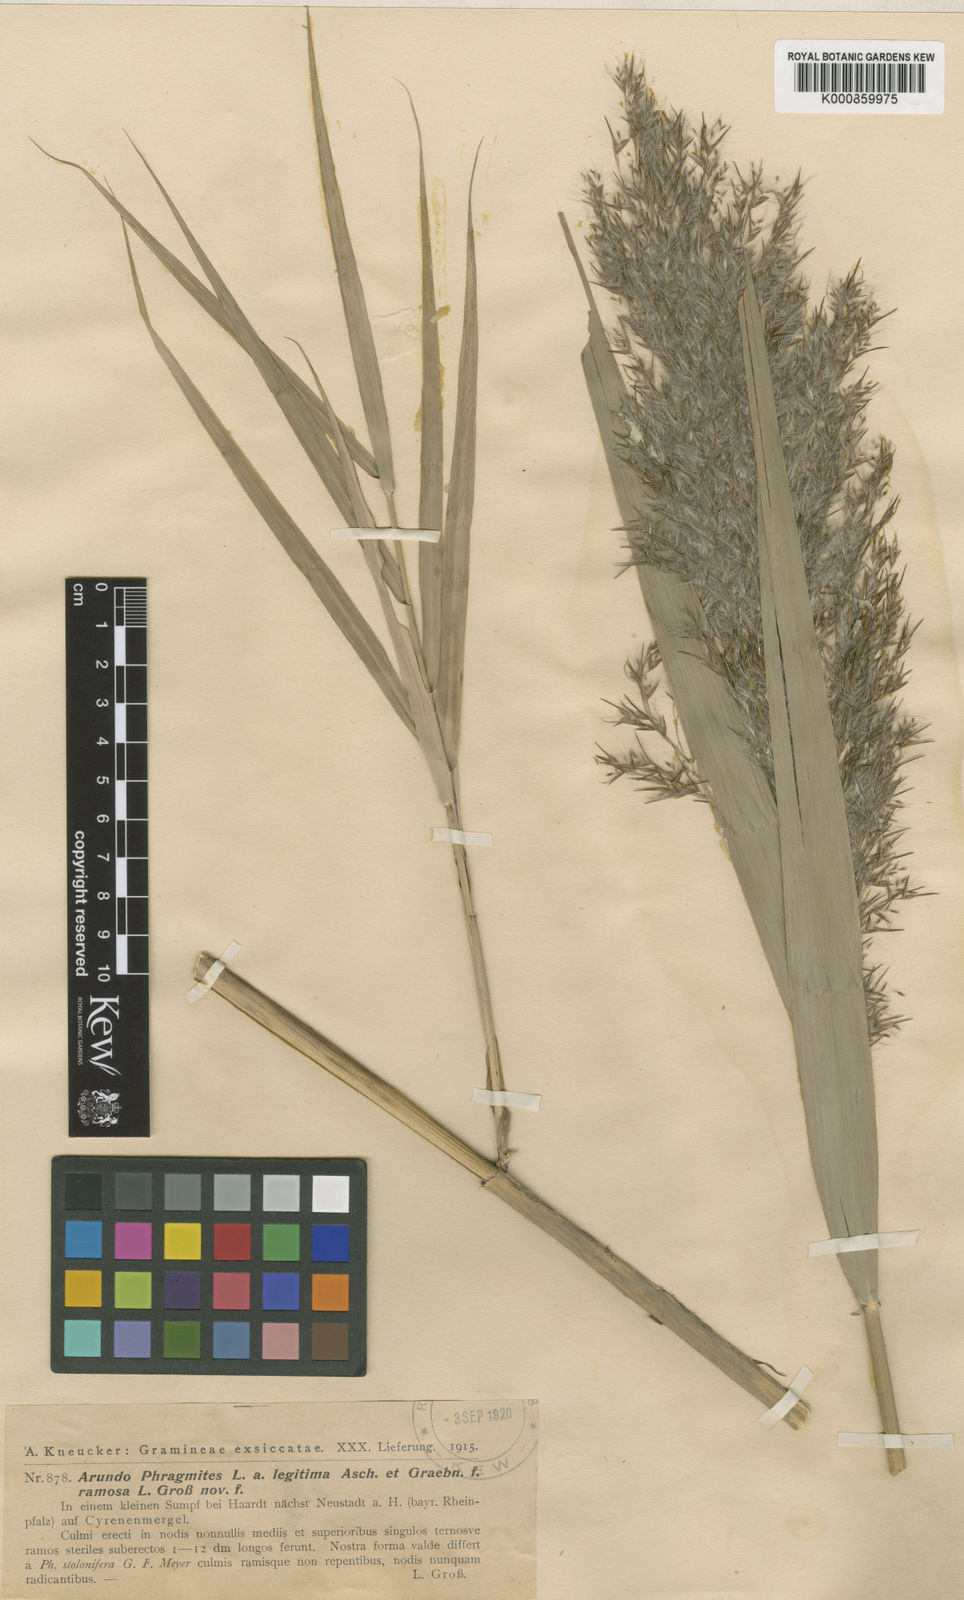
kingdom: Plantae
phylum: Tracheophyta
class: Liliopsida
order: Poales
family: Poaceae
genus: Phragmites
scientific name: Phragmites australis
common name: Common reed
